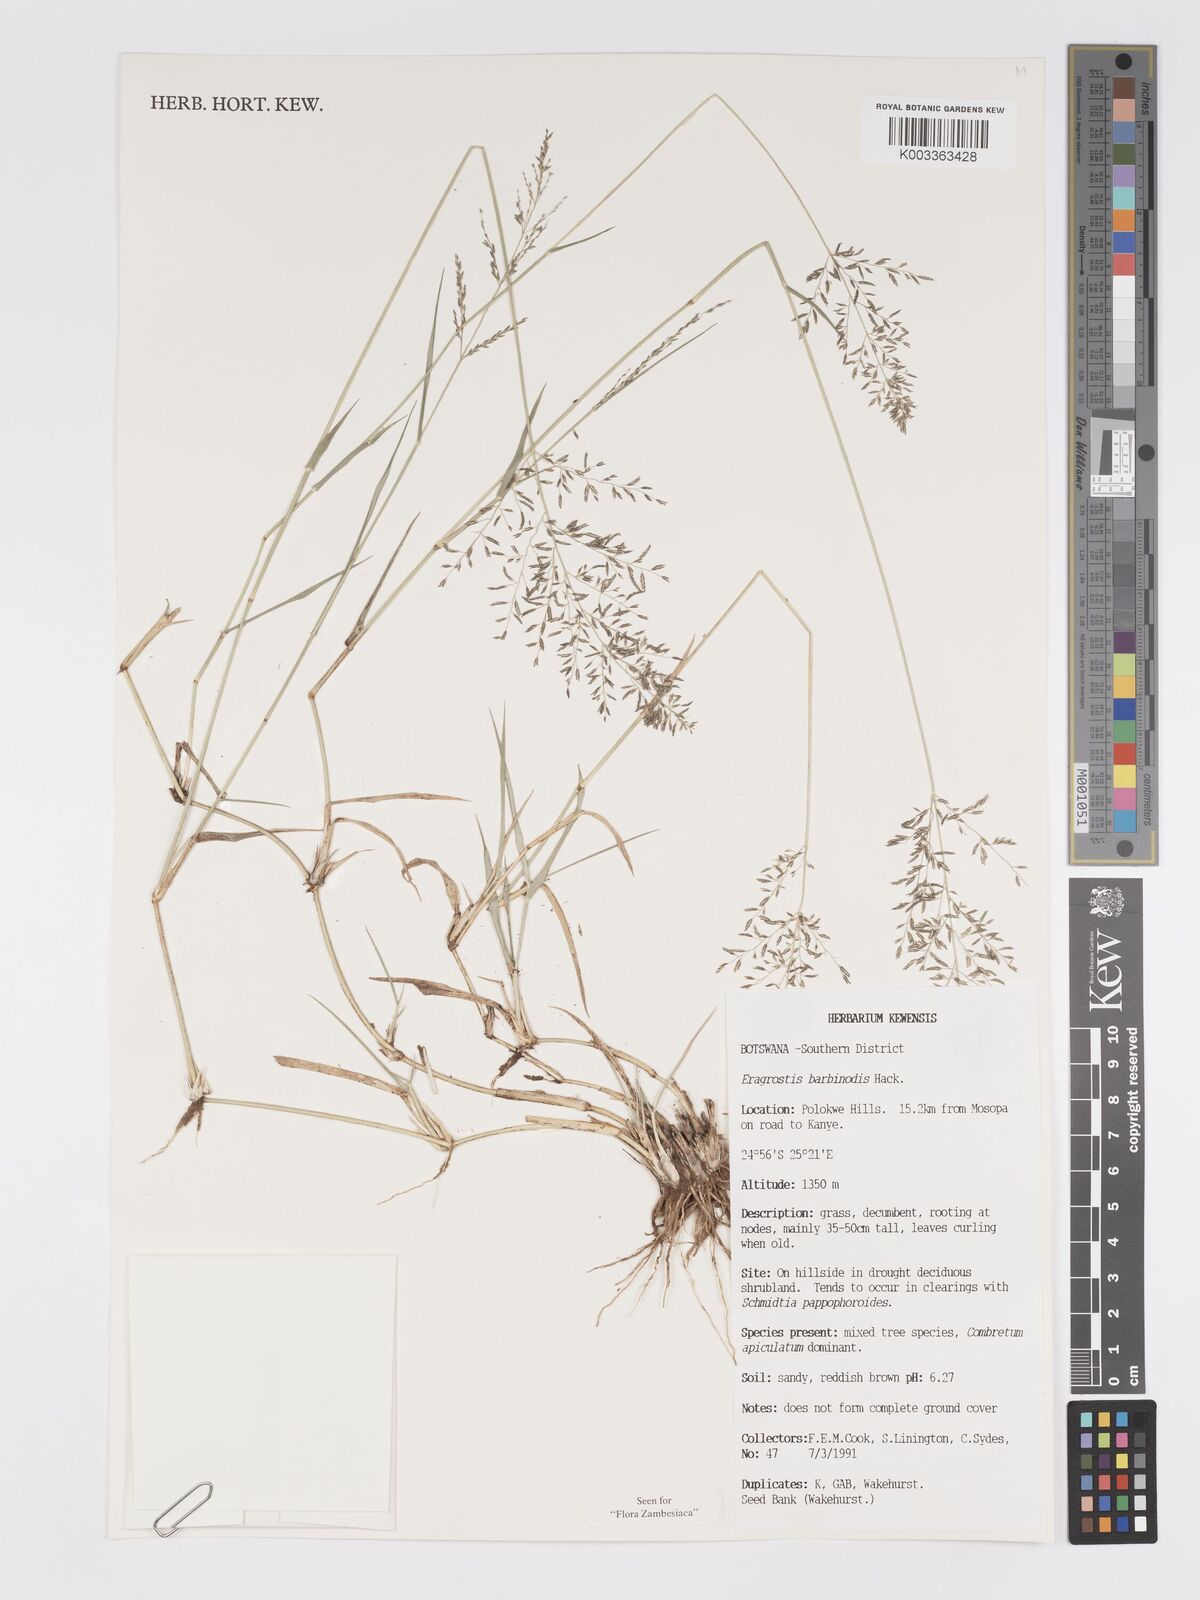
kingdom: Plantae
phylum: Tracheophyta
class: Liliopsida
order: Poales
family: Poaceae
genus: Eragrostis
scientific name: Eragrostis barbinodis
